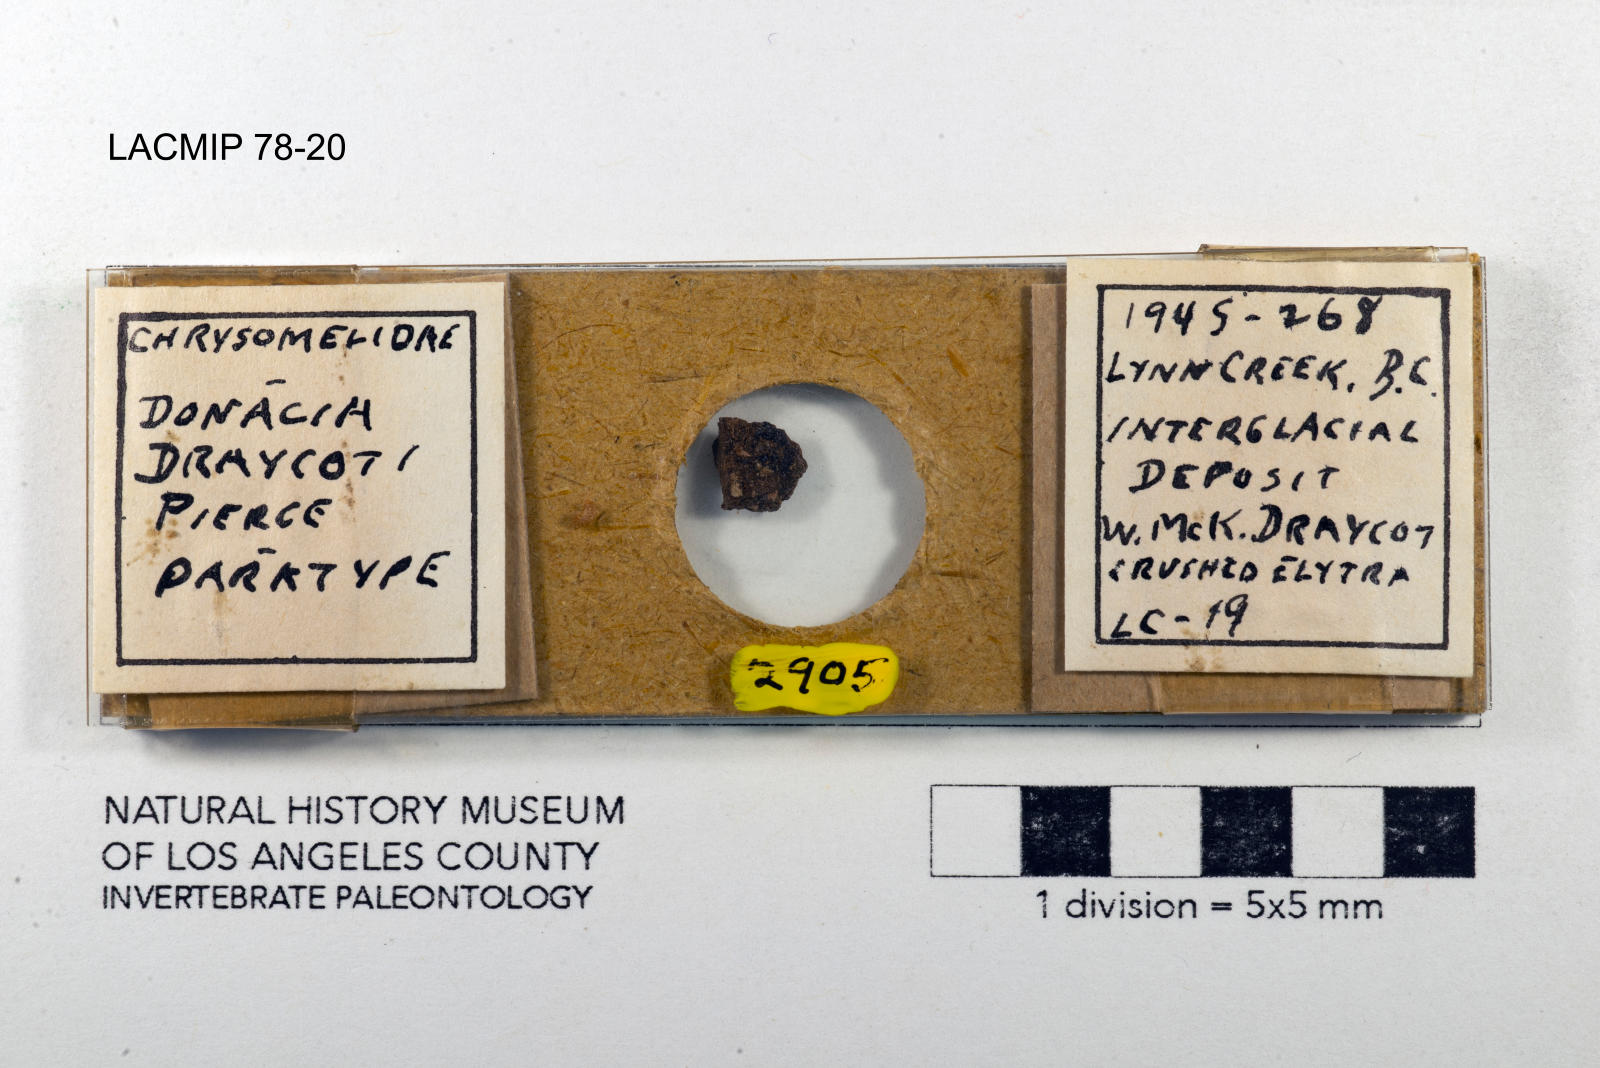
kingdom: Animalia
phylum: Arthropoda
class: Insecta
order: Coleoptera
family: Chrysomelidae
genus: Donacia
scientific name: Donacia draycoti
